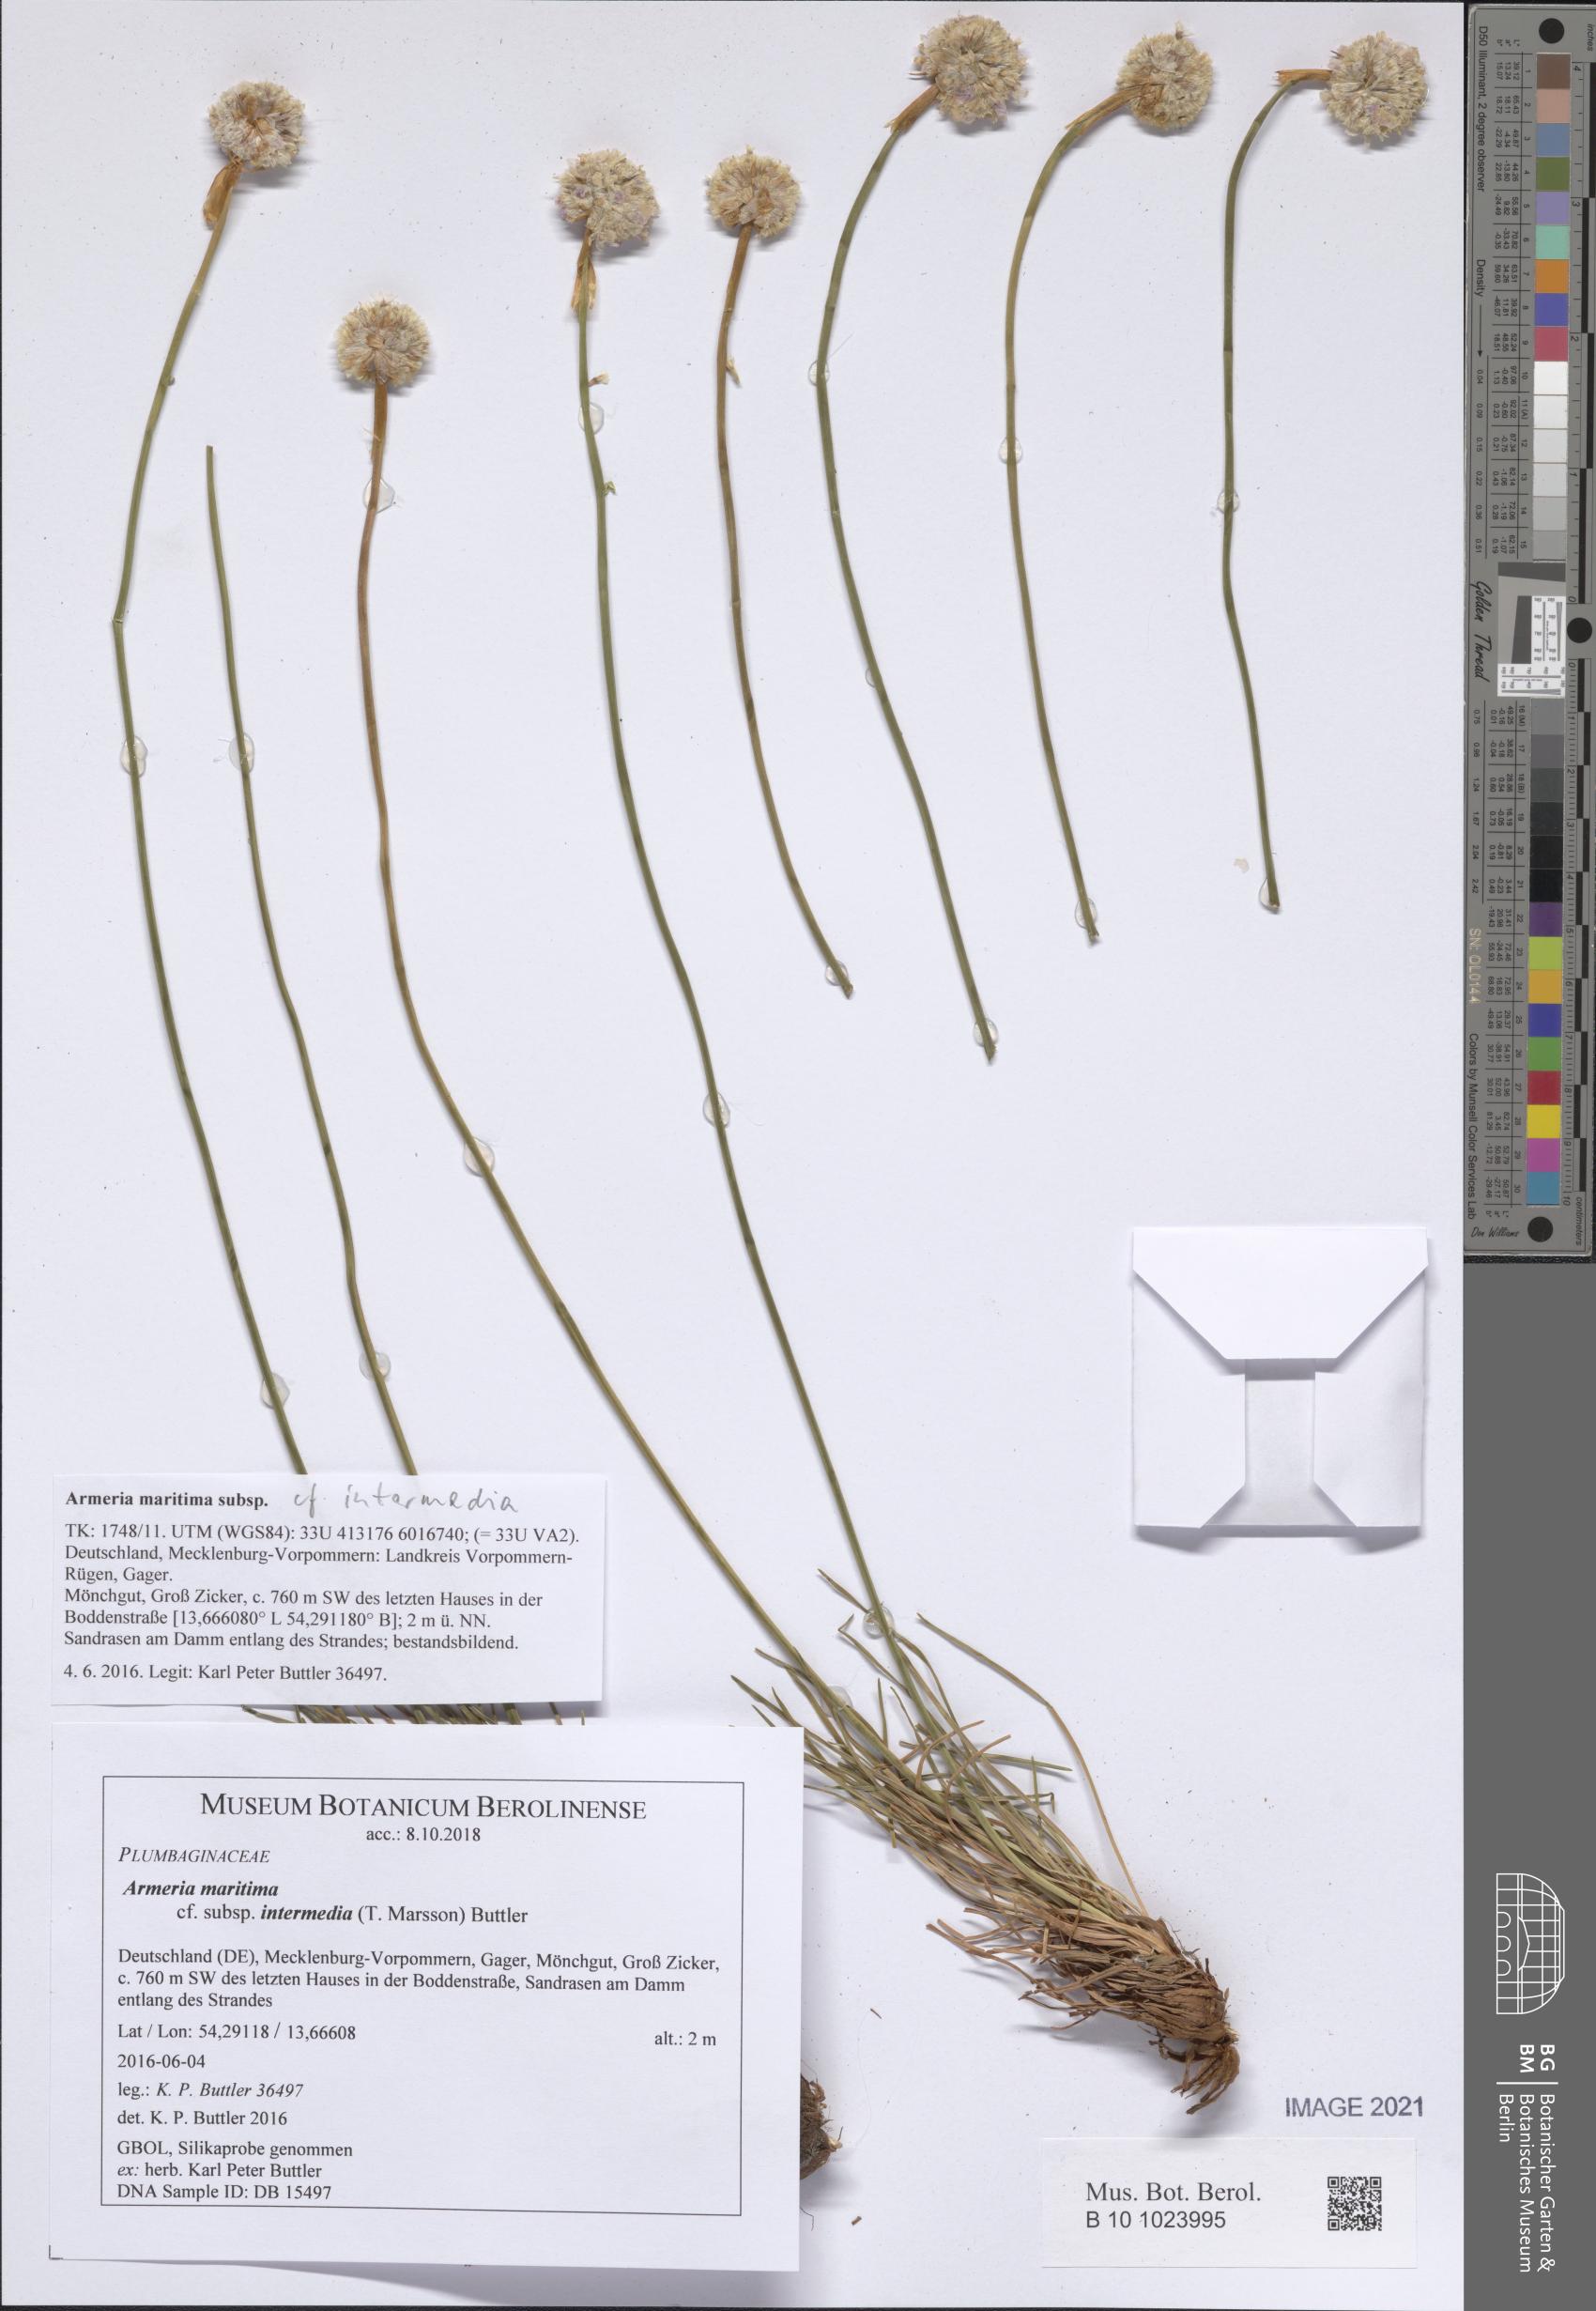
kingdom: Plantae
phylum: Tracheophyta
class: Magnoliopsida
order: Caryophyllales
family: Plumbaginaceae
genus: Armeria
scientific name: Armeria maritima
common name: Thrift
